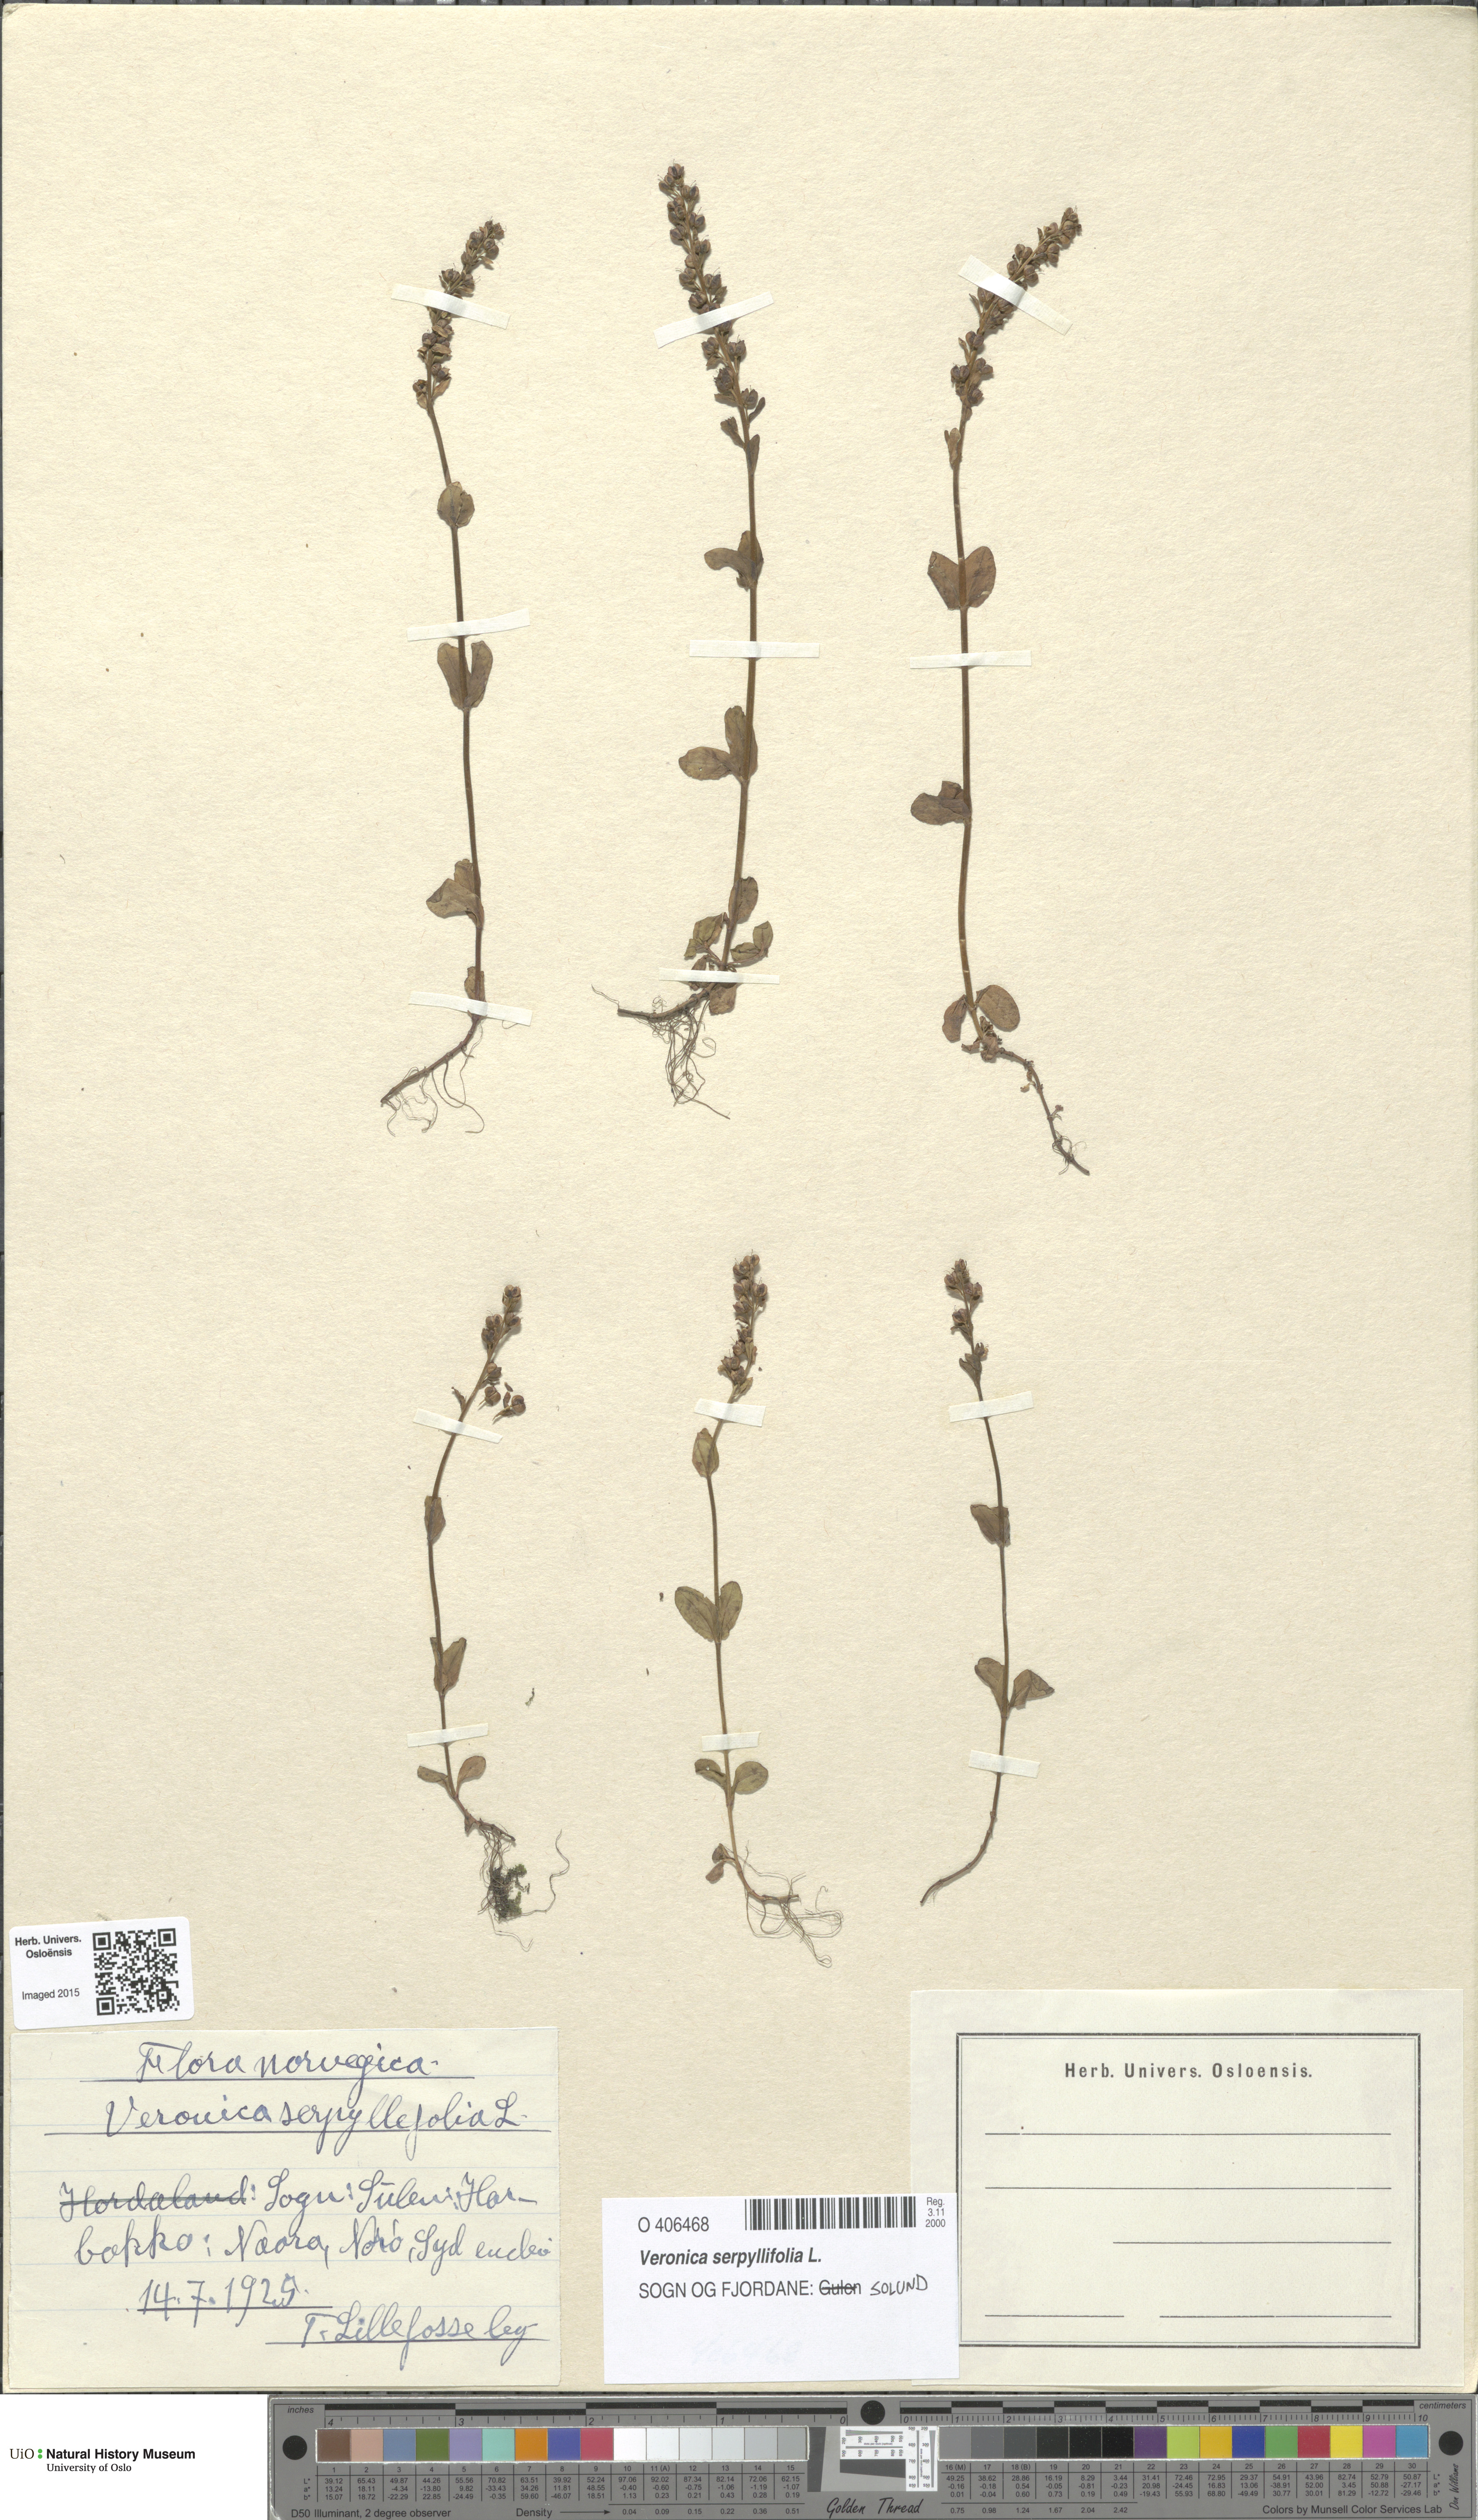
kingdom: Plantae
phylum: Tracheophyta
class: Magnoliopsida
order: Lamiales
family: Plantaginaceae
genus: Veronica
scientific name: Veronica serpyllifolia
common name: Thyme-leaved speedwell
